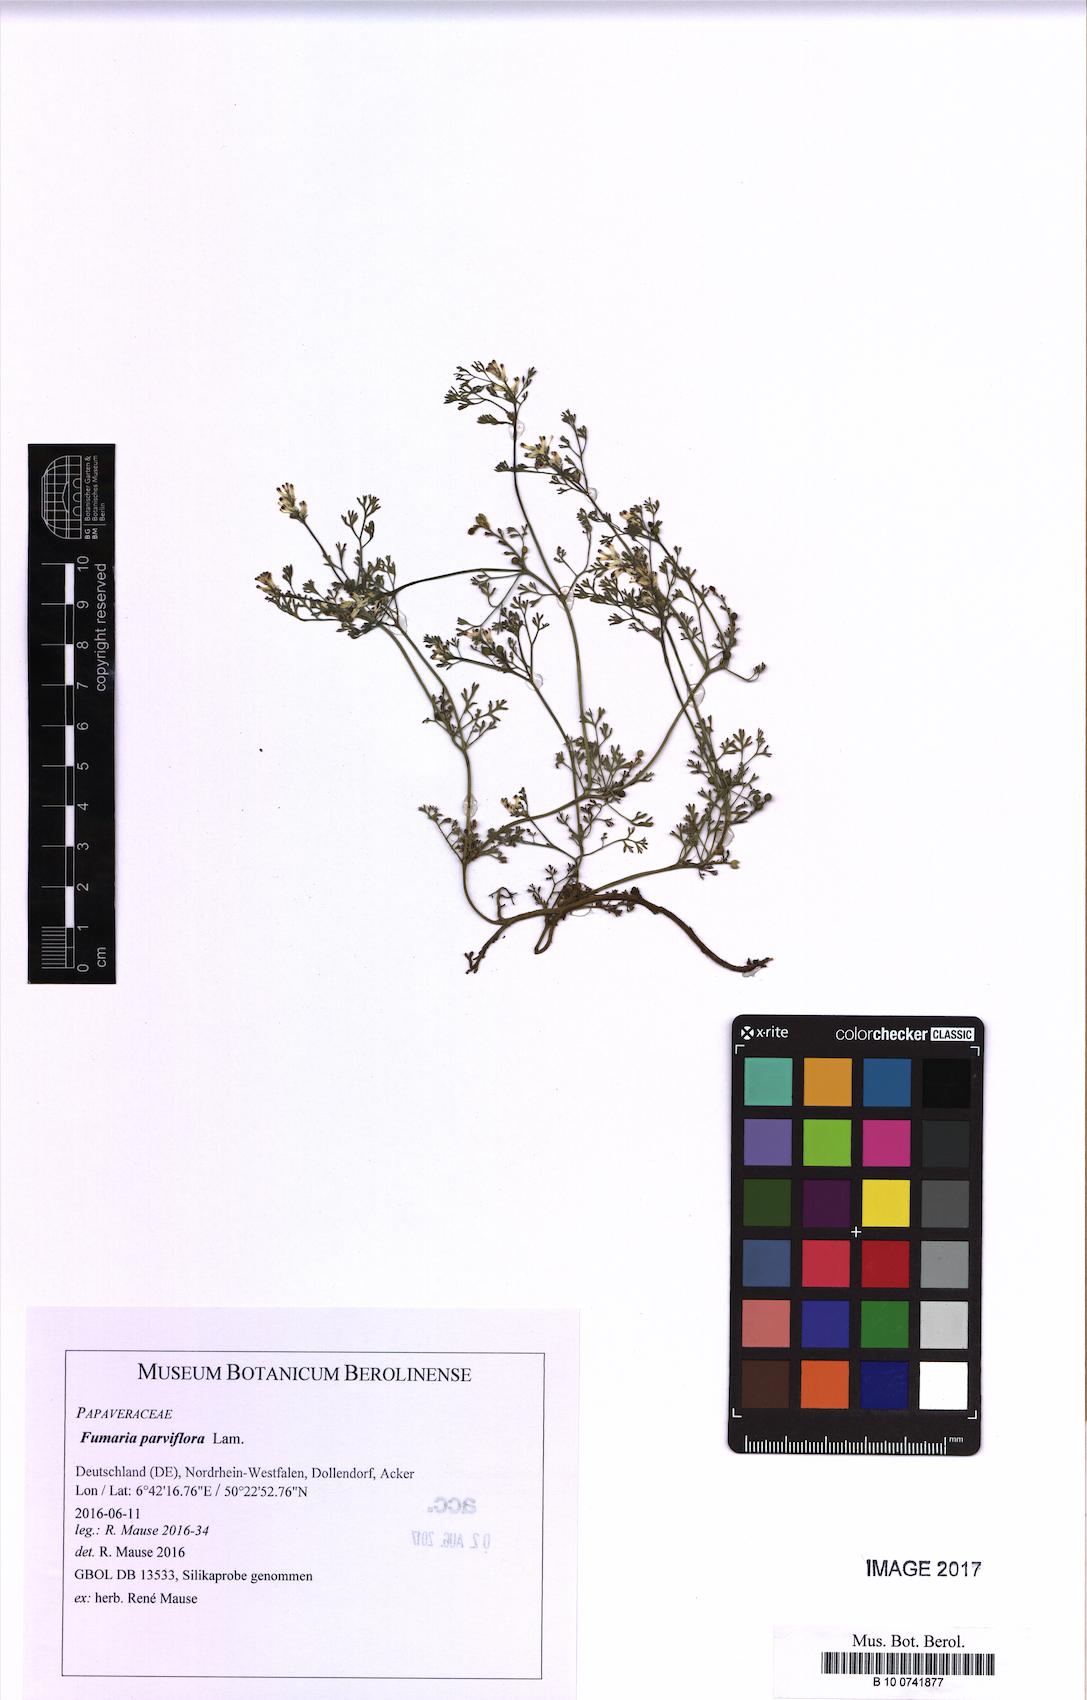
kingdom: Plantae
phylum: Tracheophyta
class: Magnoliopsida
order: Ranunculales
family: Papaveraceae
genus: Fumaria
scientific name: Fumaria parviflora
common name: Fine-leaved fumitory
